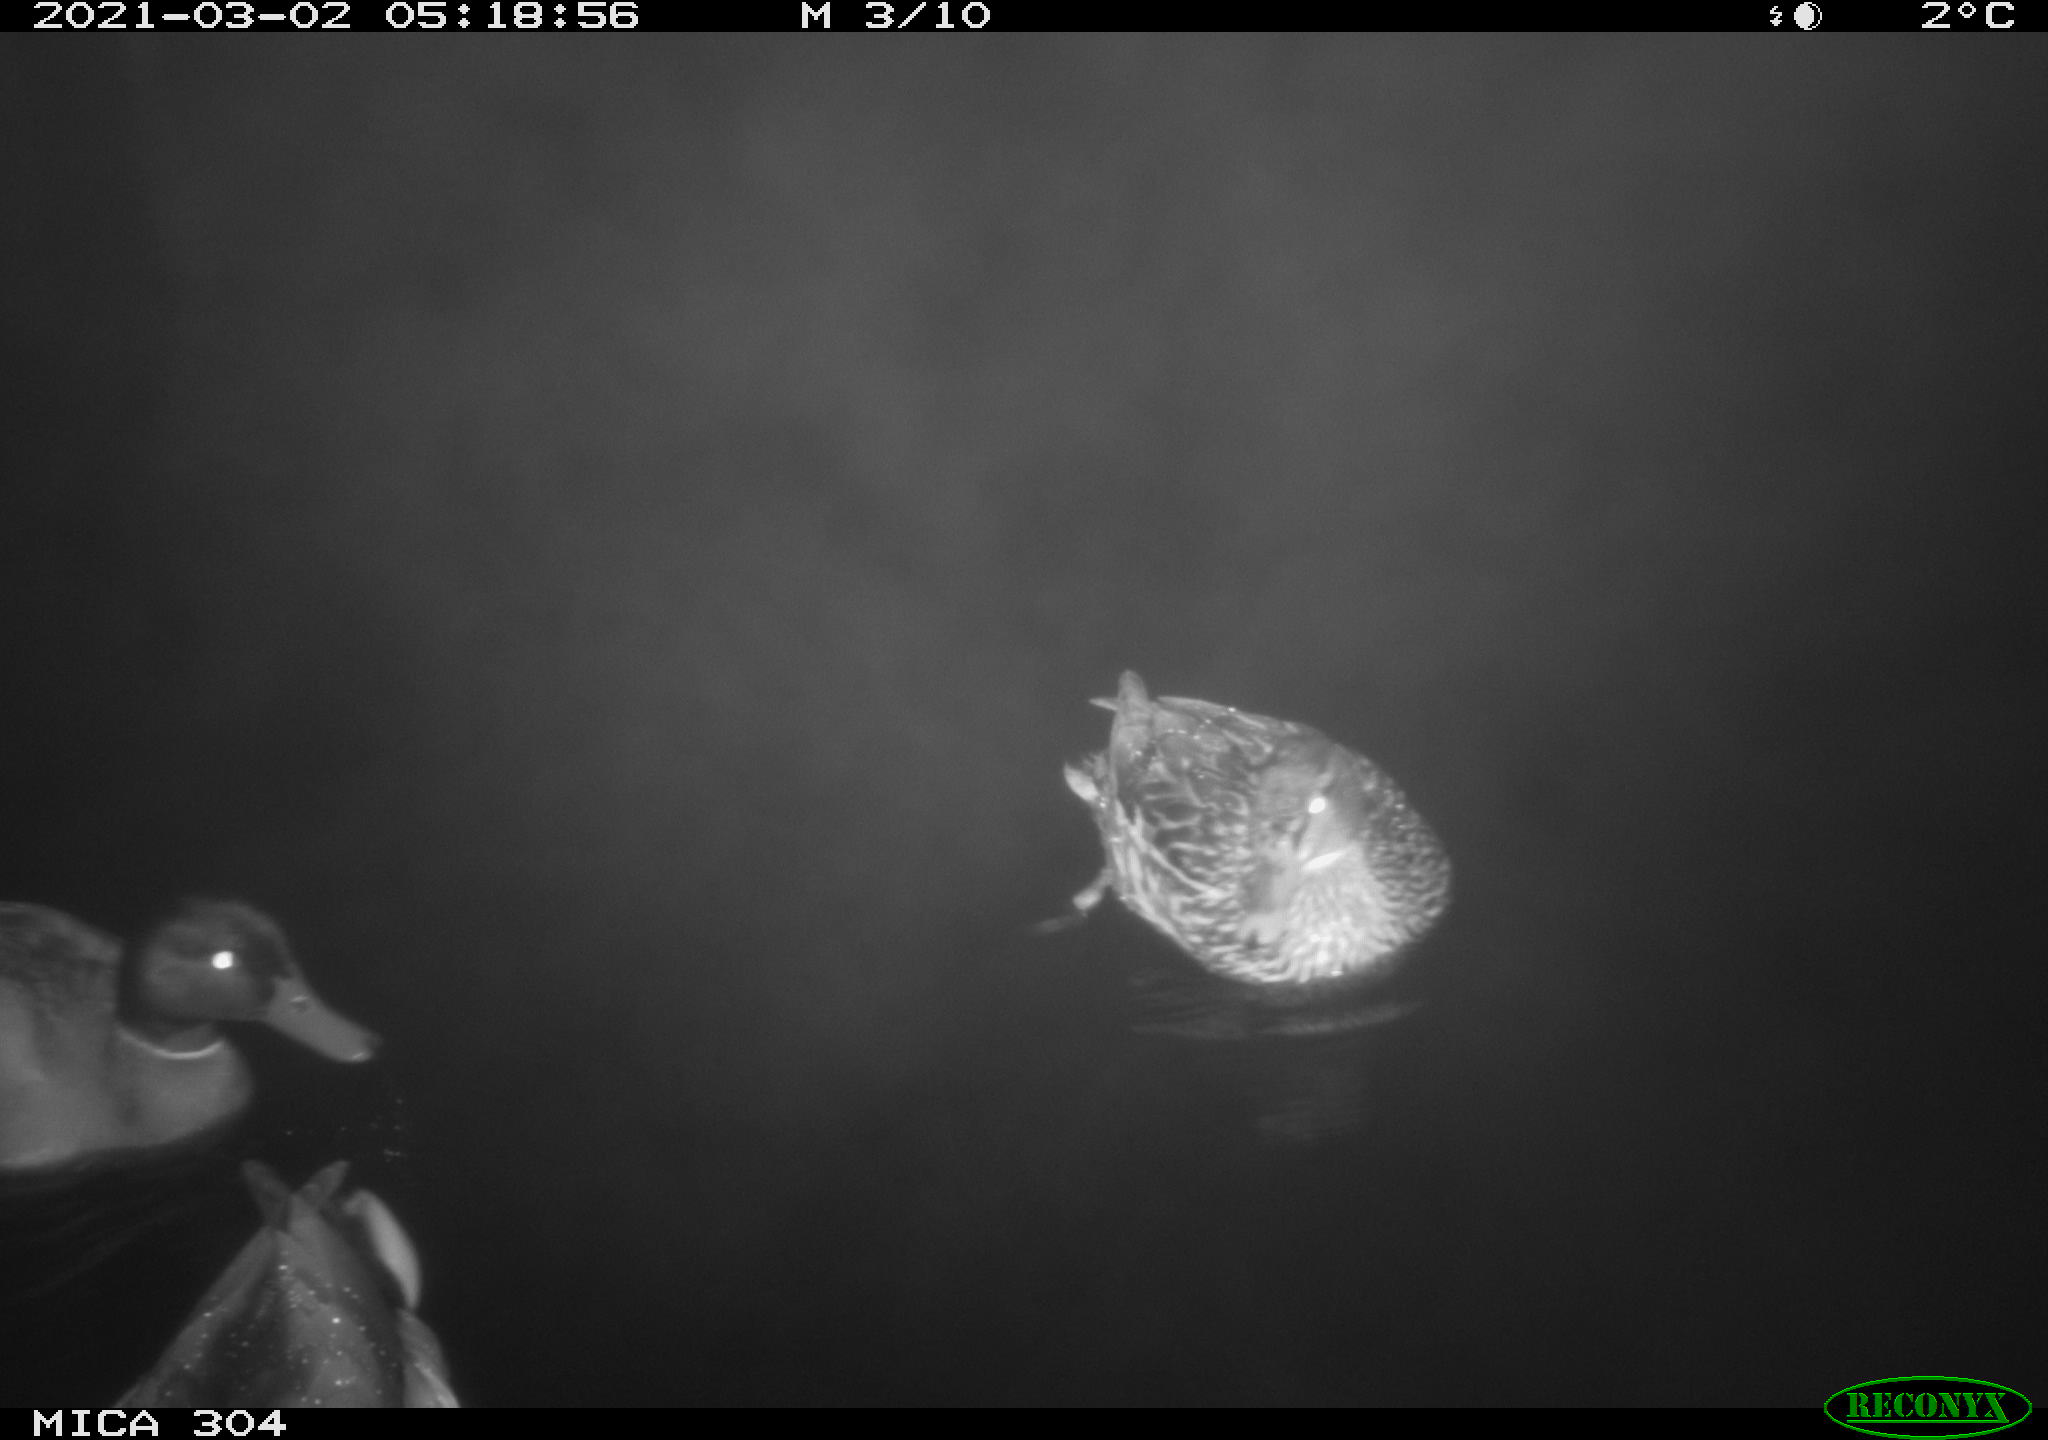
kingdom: Animalia
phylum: Chordata
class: Aves
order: Gruiformes
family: Rallidae
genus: Fulica
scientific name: Fulica atra
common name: Eurasian coot
